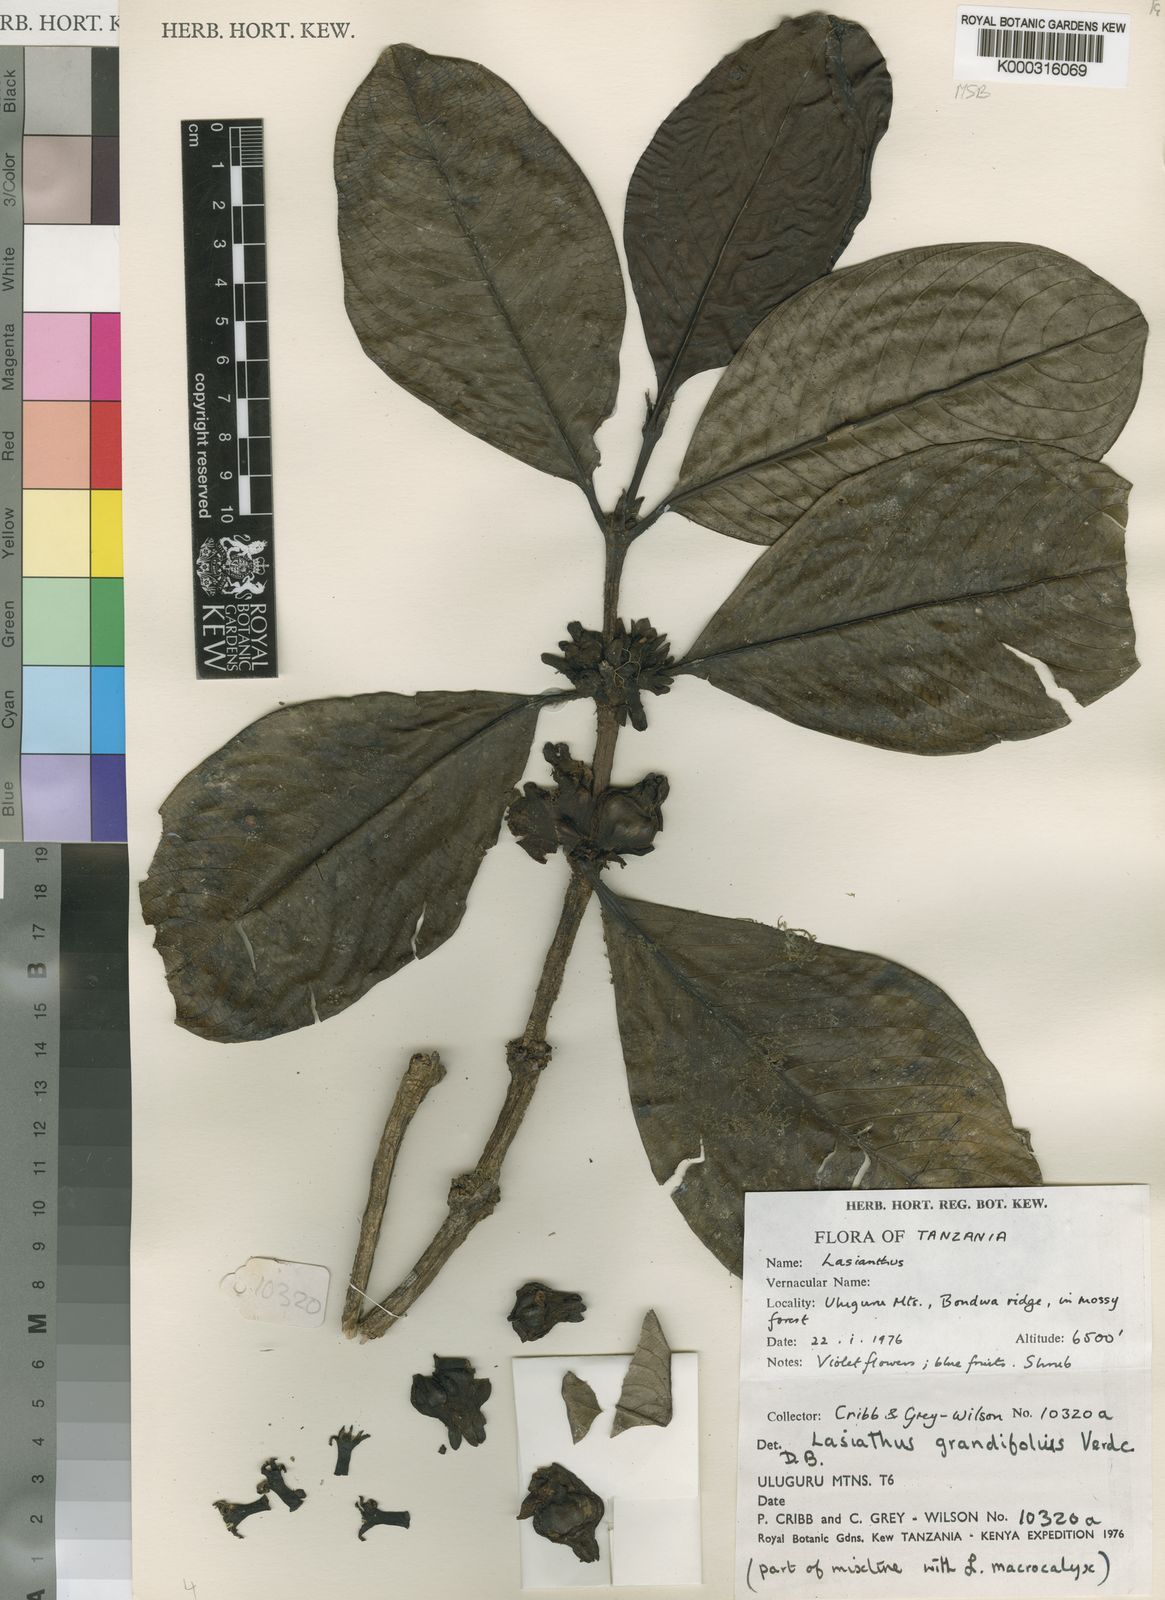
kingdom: Plantae
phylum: Tracheophyta
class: Magnoliopsida
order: Gentianales
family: Rubiaceae
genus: Lasianthus
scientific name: Lasianthus macrocalyx
